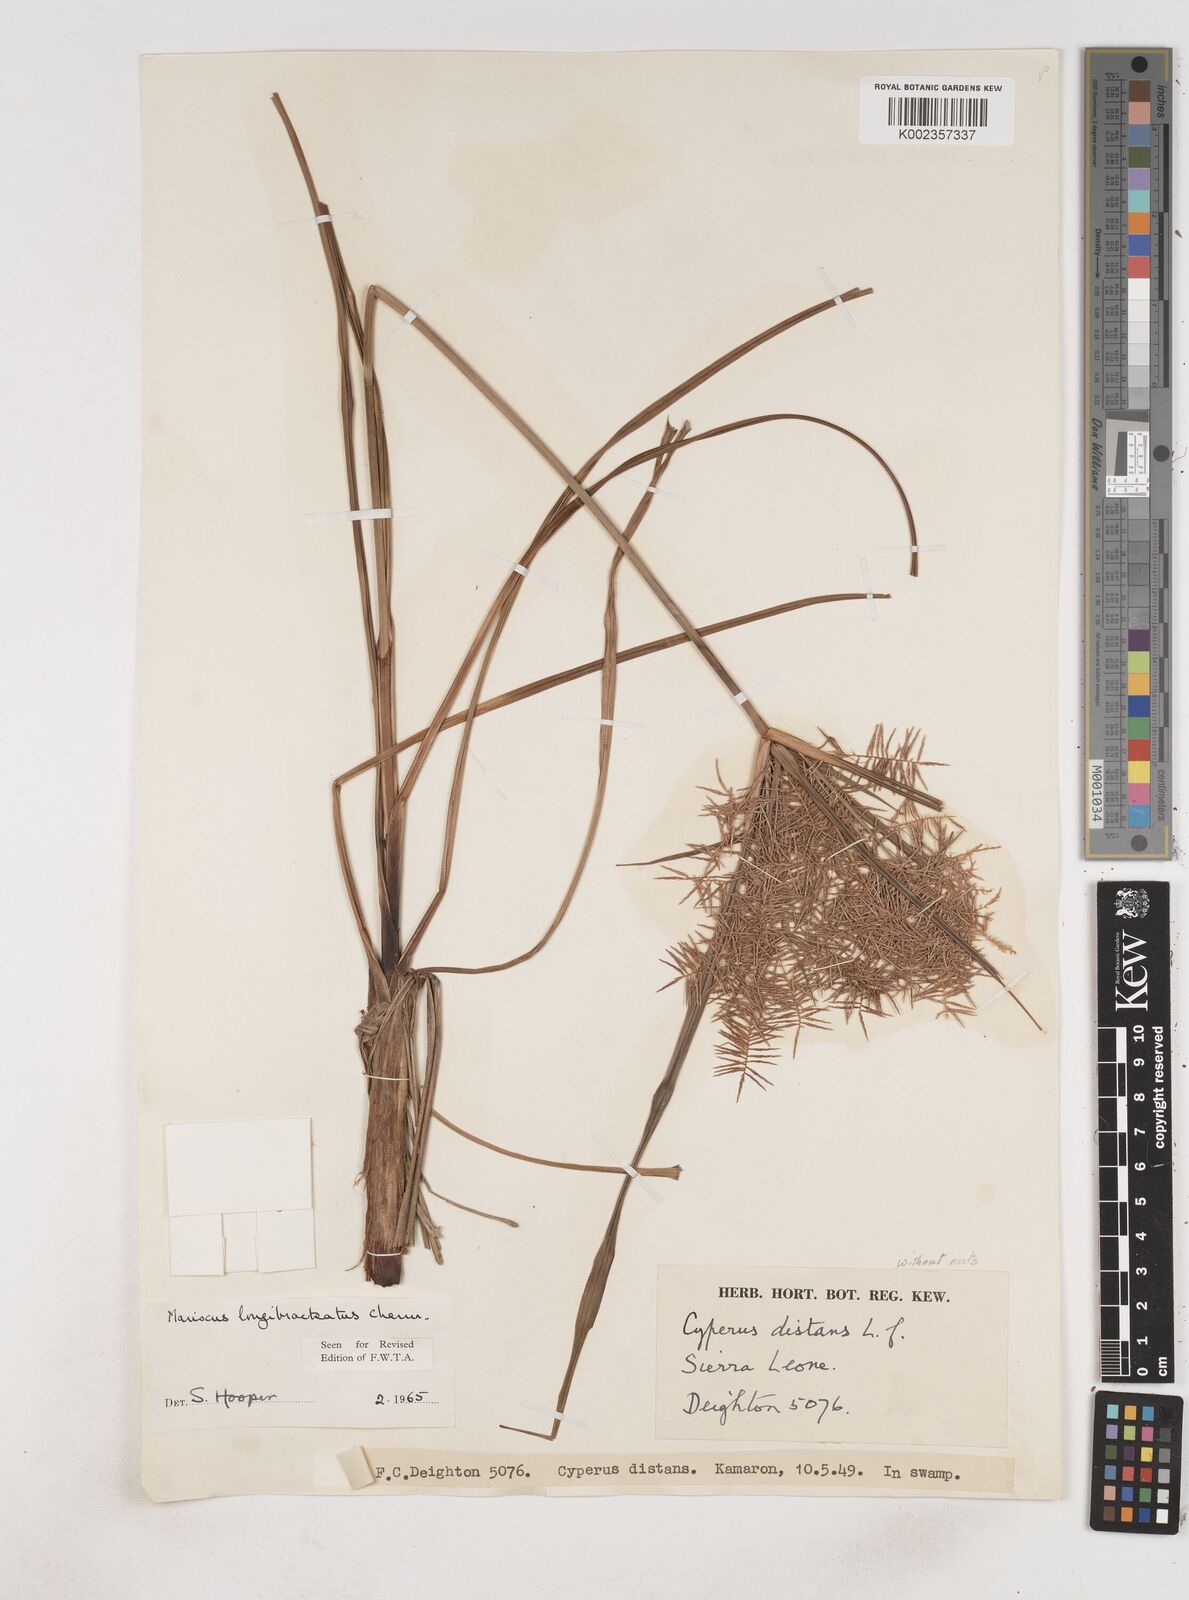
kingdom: Plantae
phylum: Tracheophyta
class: Liliopsida
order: Poales
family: Cyperaceae
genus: Cyperus
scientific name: Cyperus distans
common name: Slender cyperus
